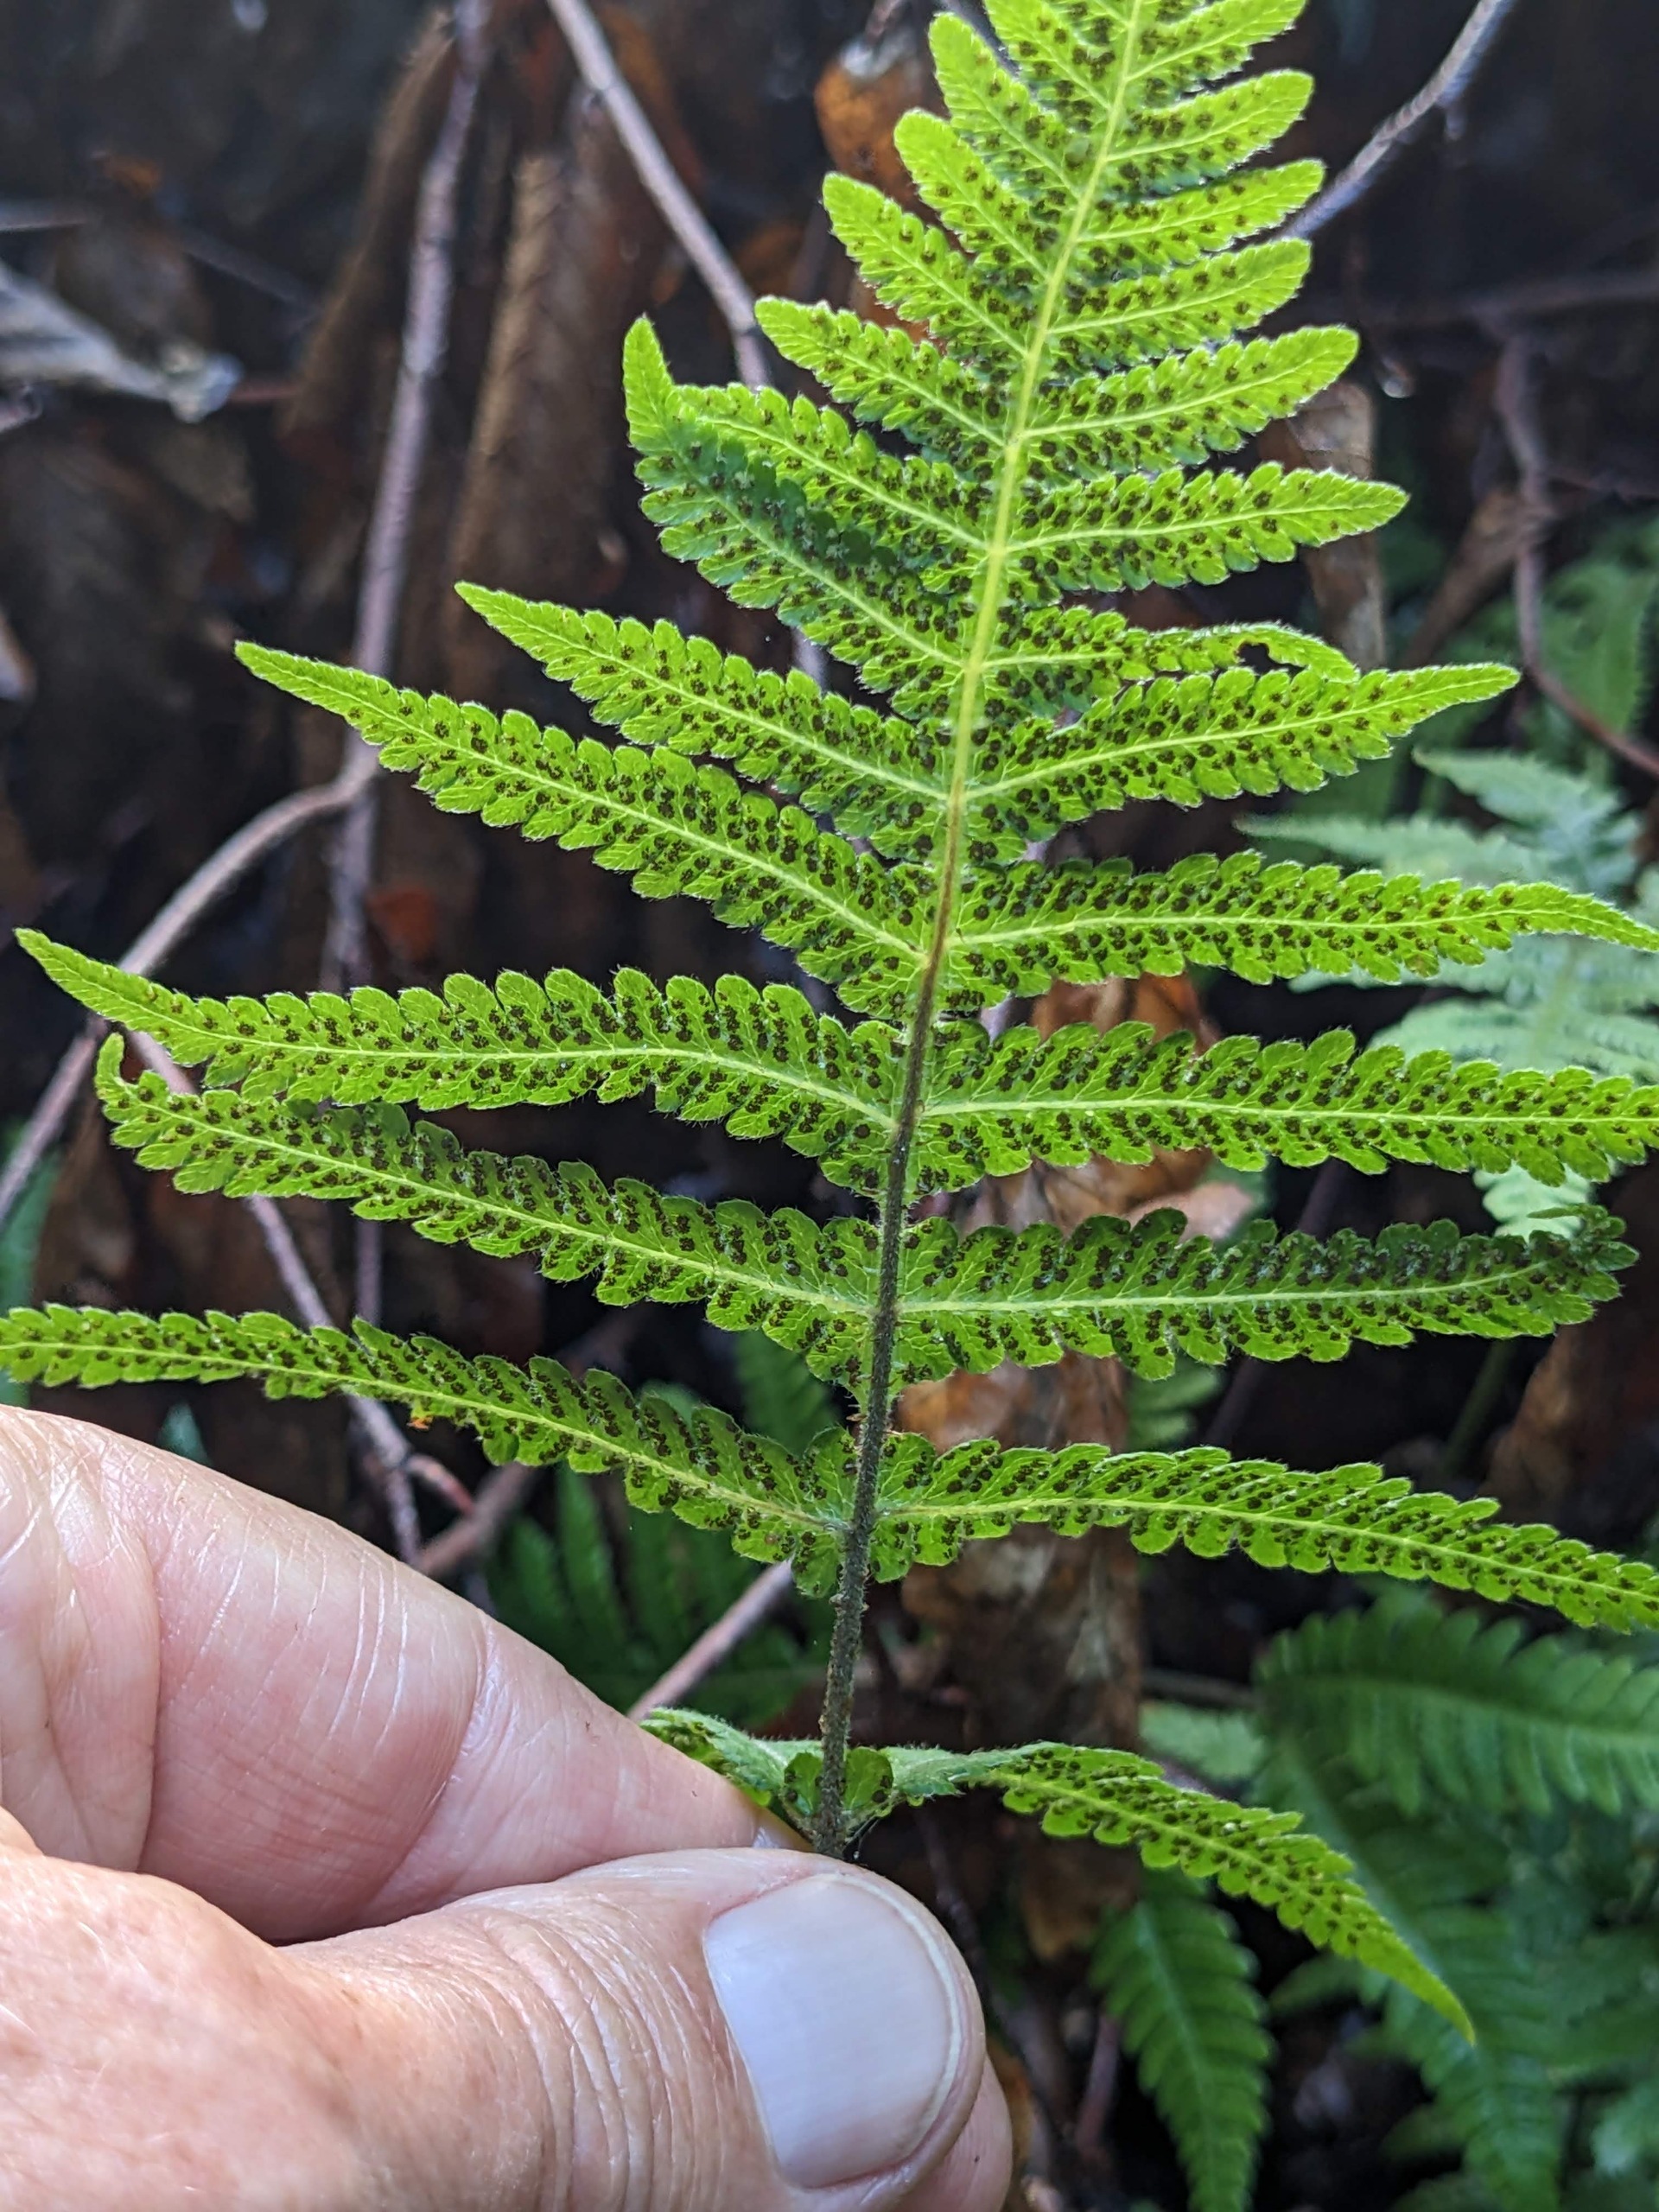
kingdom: Plantae
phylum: Tracheophyta
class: Polypodiopsida
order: Polypodiales
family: Thelypteridaceae
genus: Phegopteris
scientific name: Phegopteris connectilis
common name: Dunet egebregne
